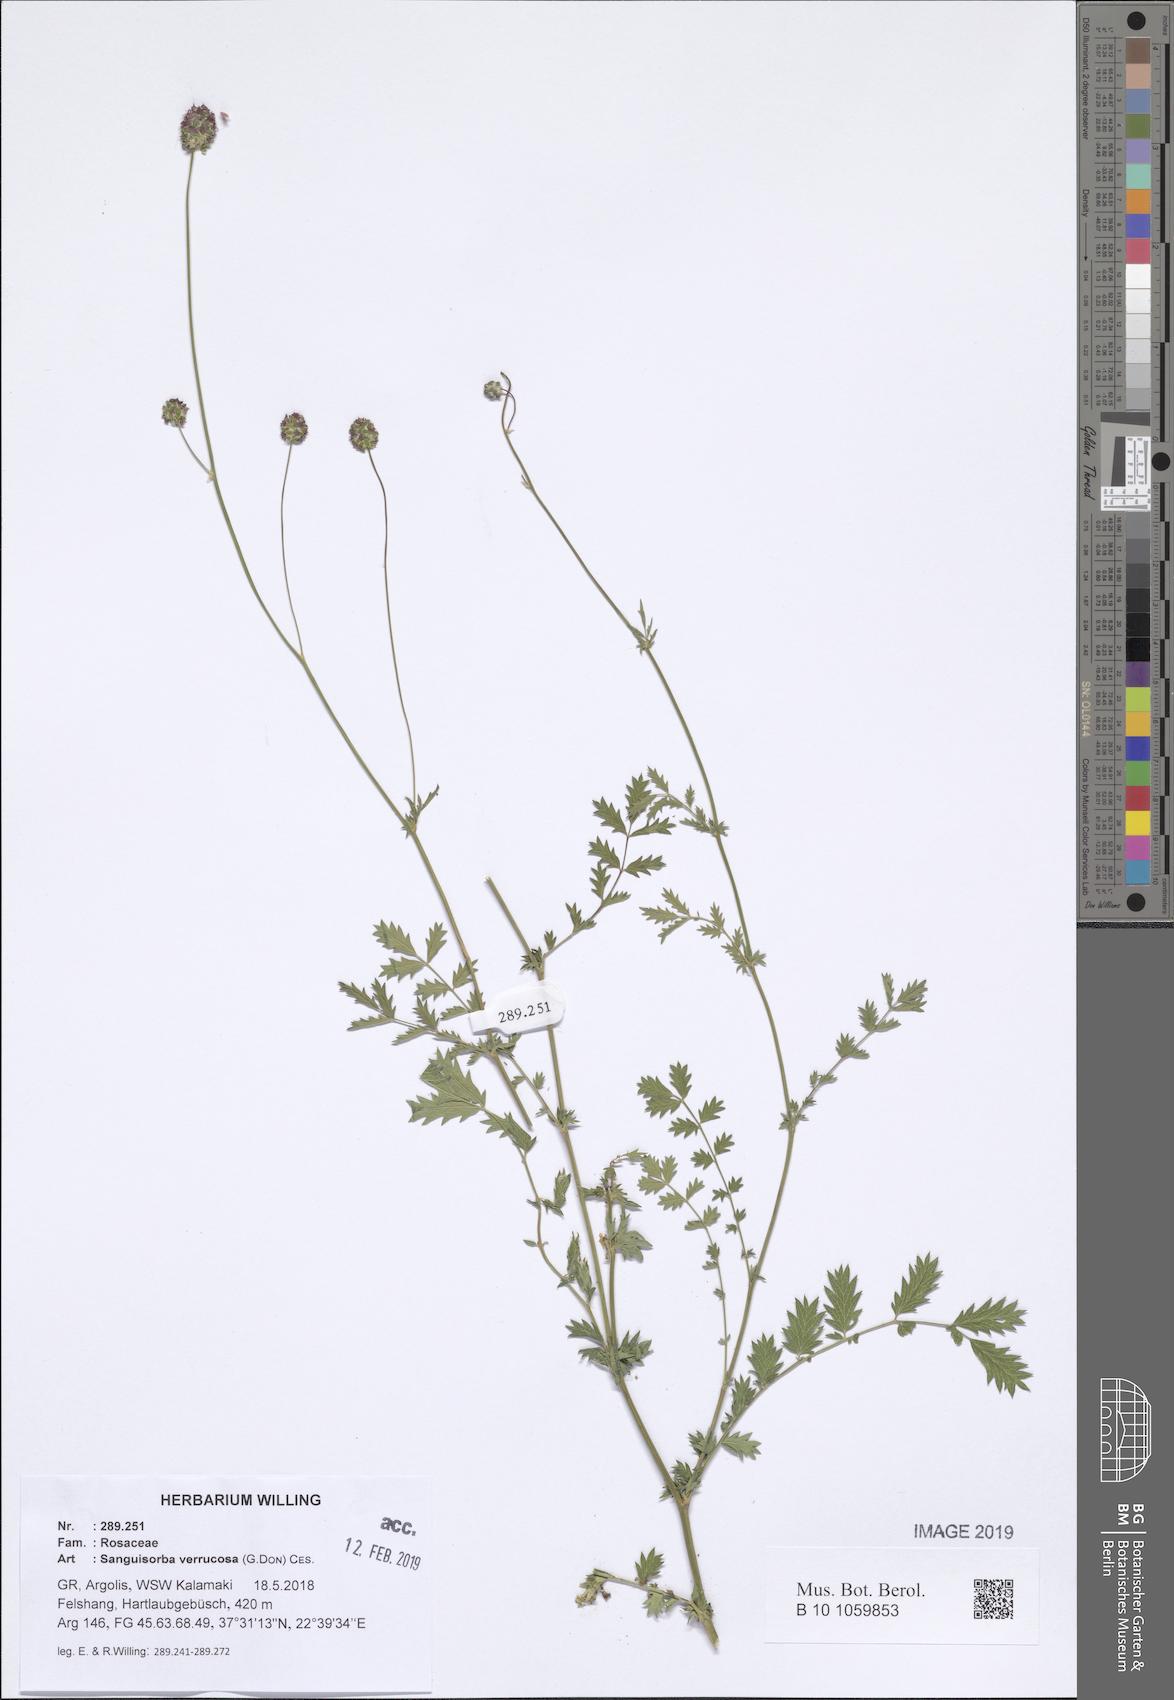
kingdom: Plantae
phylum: Tracheophyta
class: Magnoliopsida
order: Rosales
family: Rosaceae
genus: Poterium
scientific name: Poterium verrucosum
